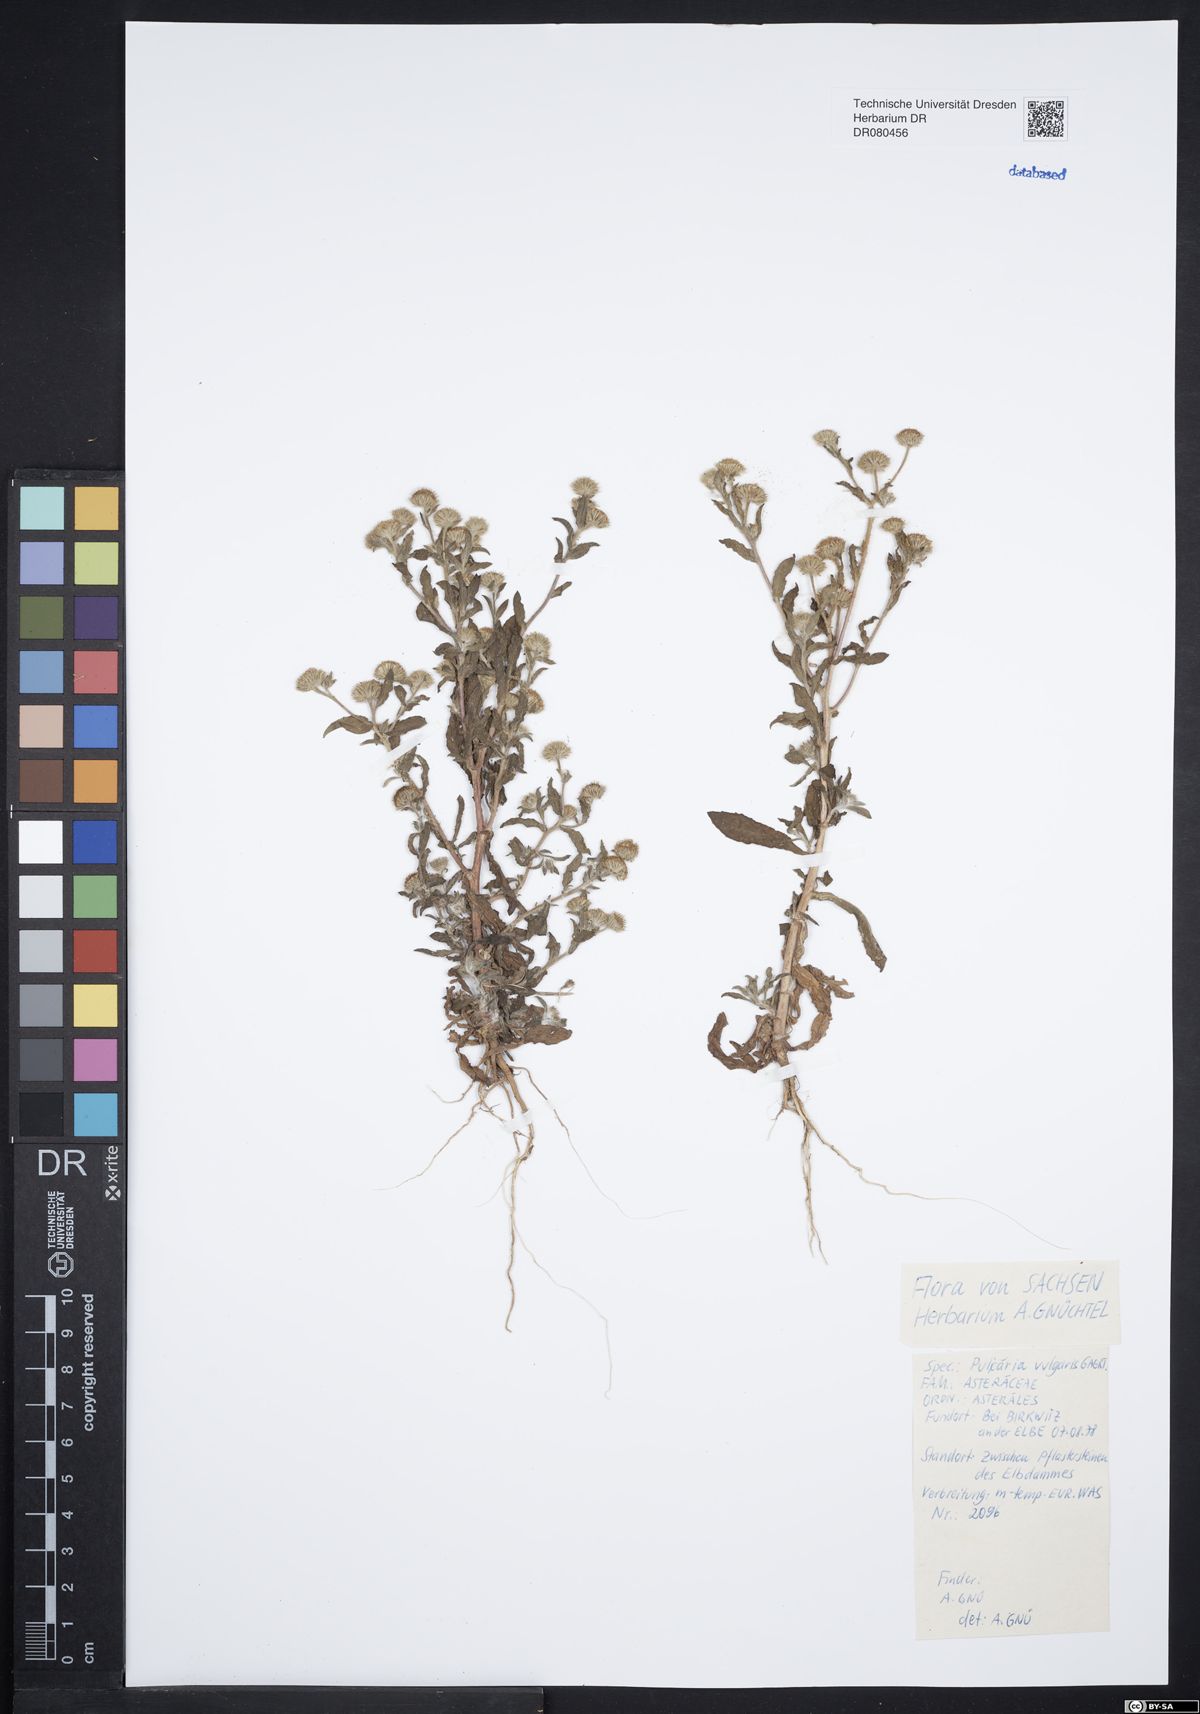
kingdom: Plantae
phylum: Tracheophyta
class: Magnoliopsida
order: Asterales
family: Asteraceae
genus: Pulicaria
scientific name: Pulicaria vulgaris
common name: Small fleabane
